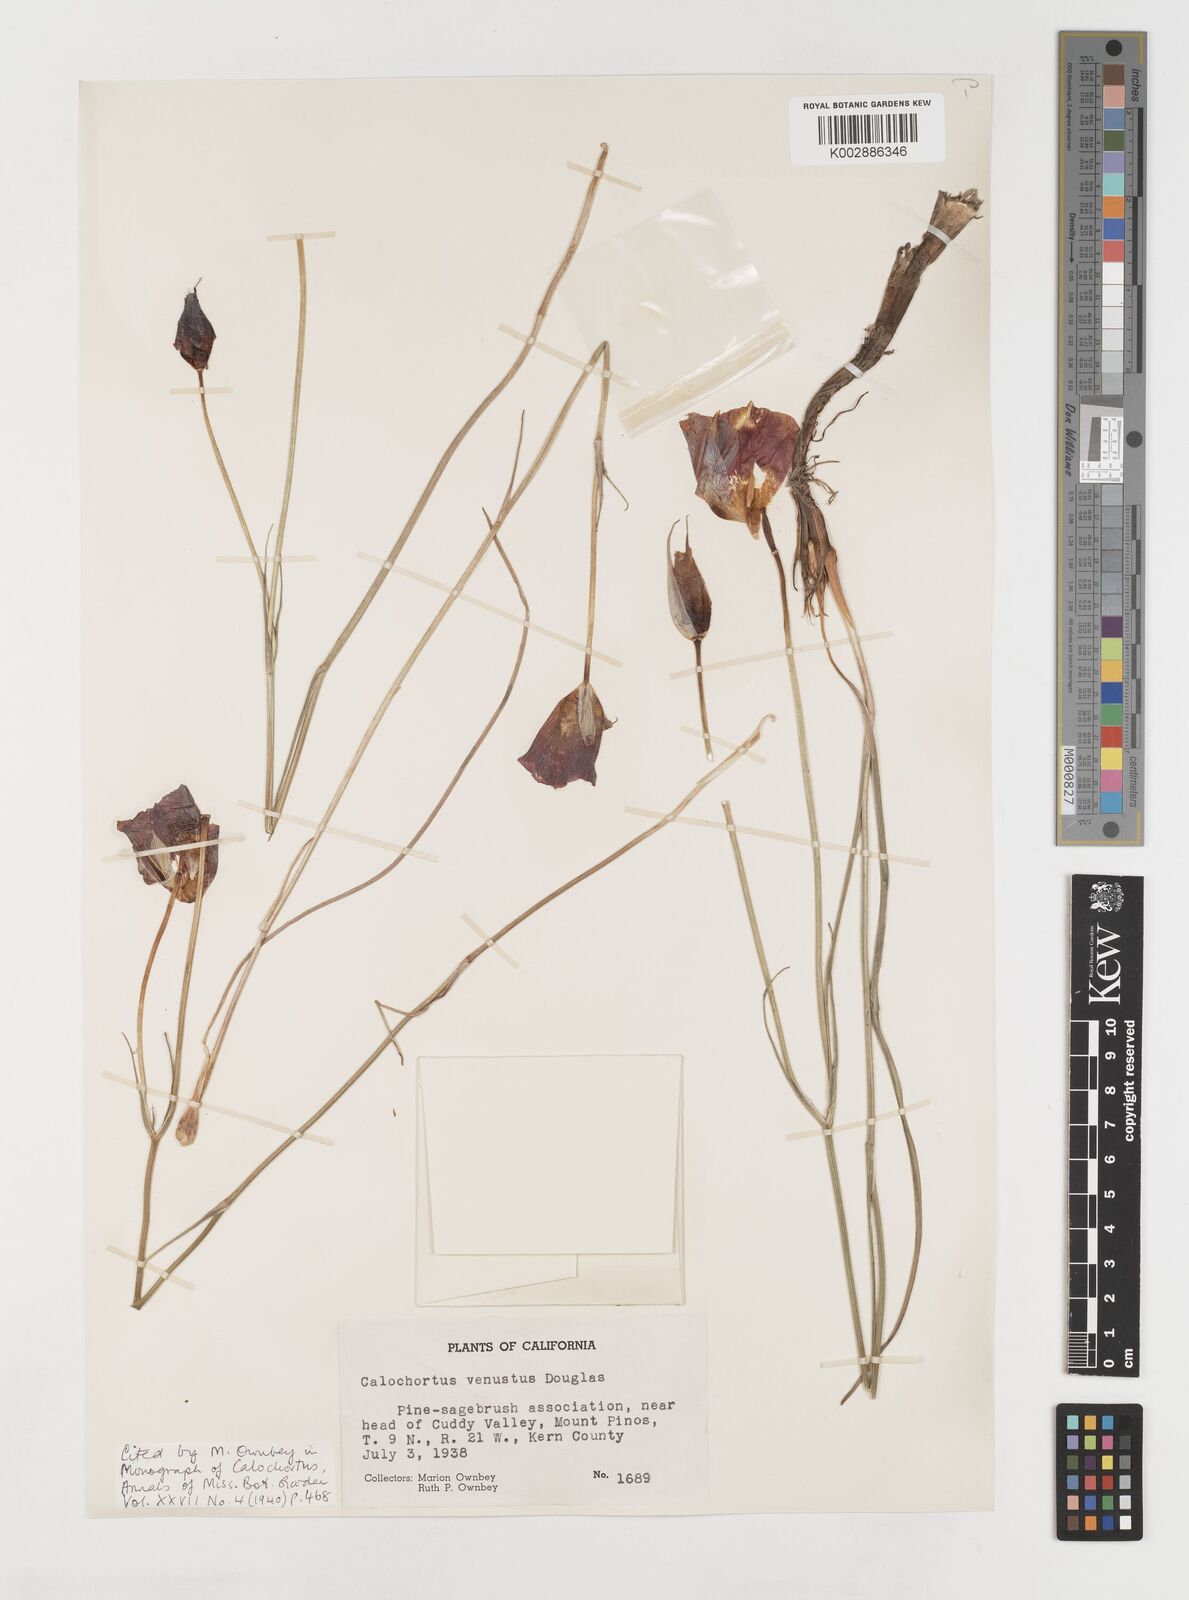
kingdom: Plantae
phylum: Tracheophyta
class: Liliopsida
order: Liliales
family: Liliaceae
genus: Calochortus
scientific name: Calochortus venustus
